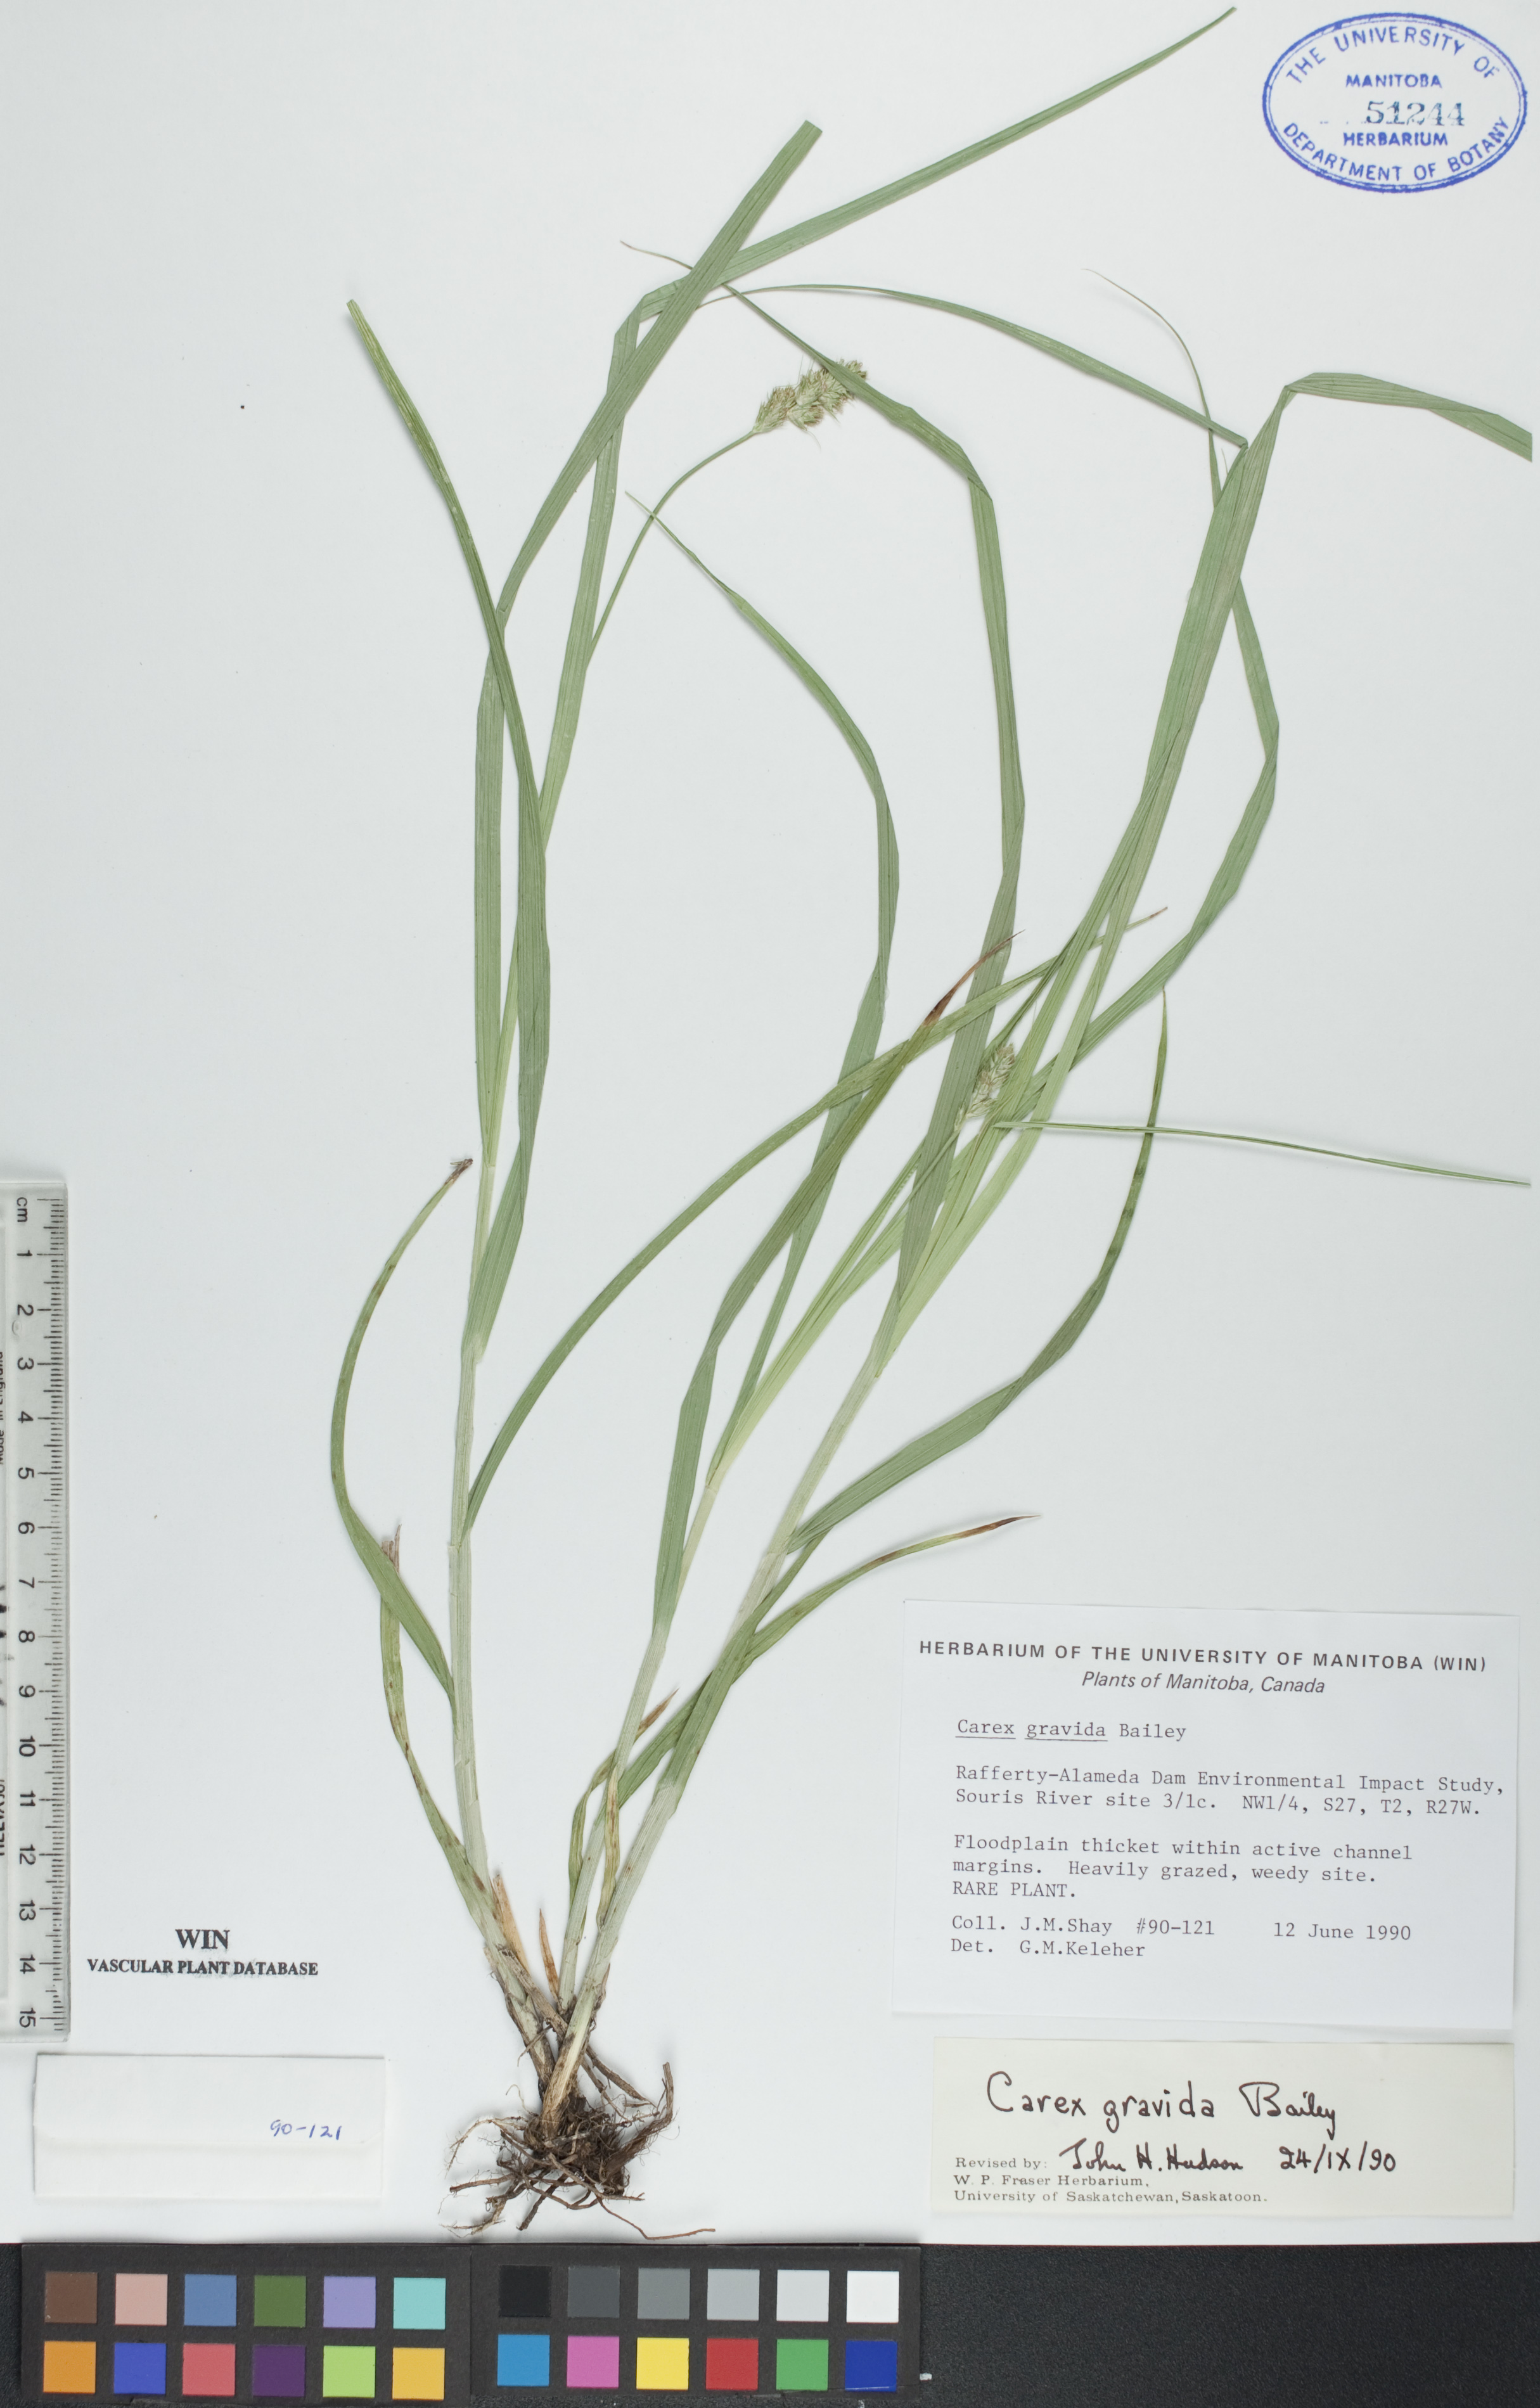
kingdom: Plantae
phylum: Tracheophyta
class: Liliopsida
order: Poales
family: Cyperaceae
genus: Carex
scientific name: Carex gravida
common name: Heavy sedge
